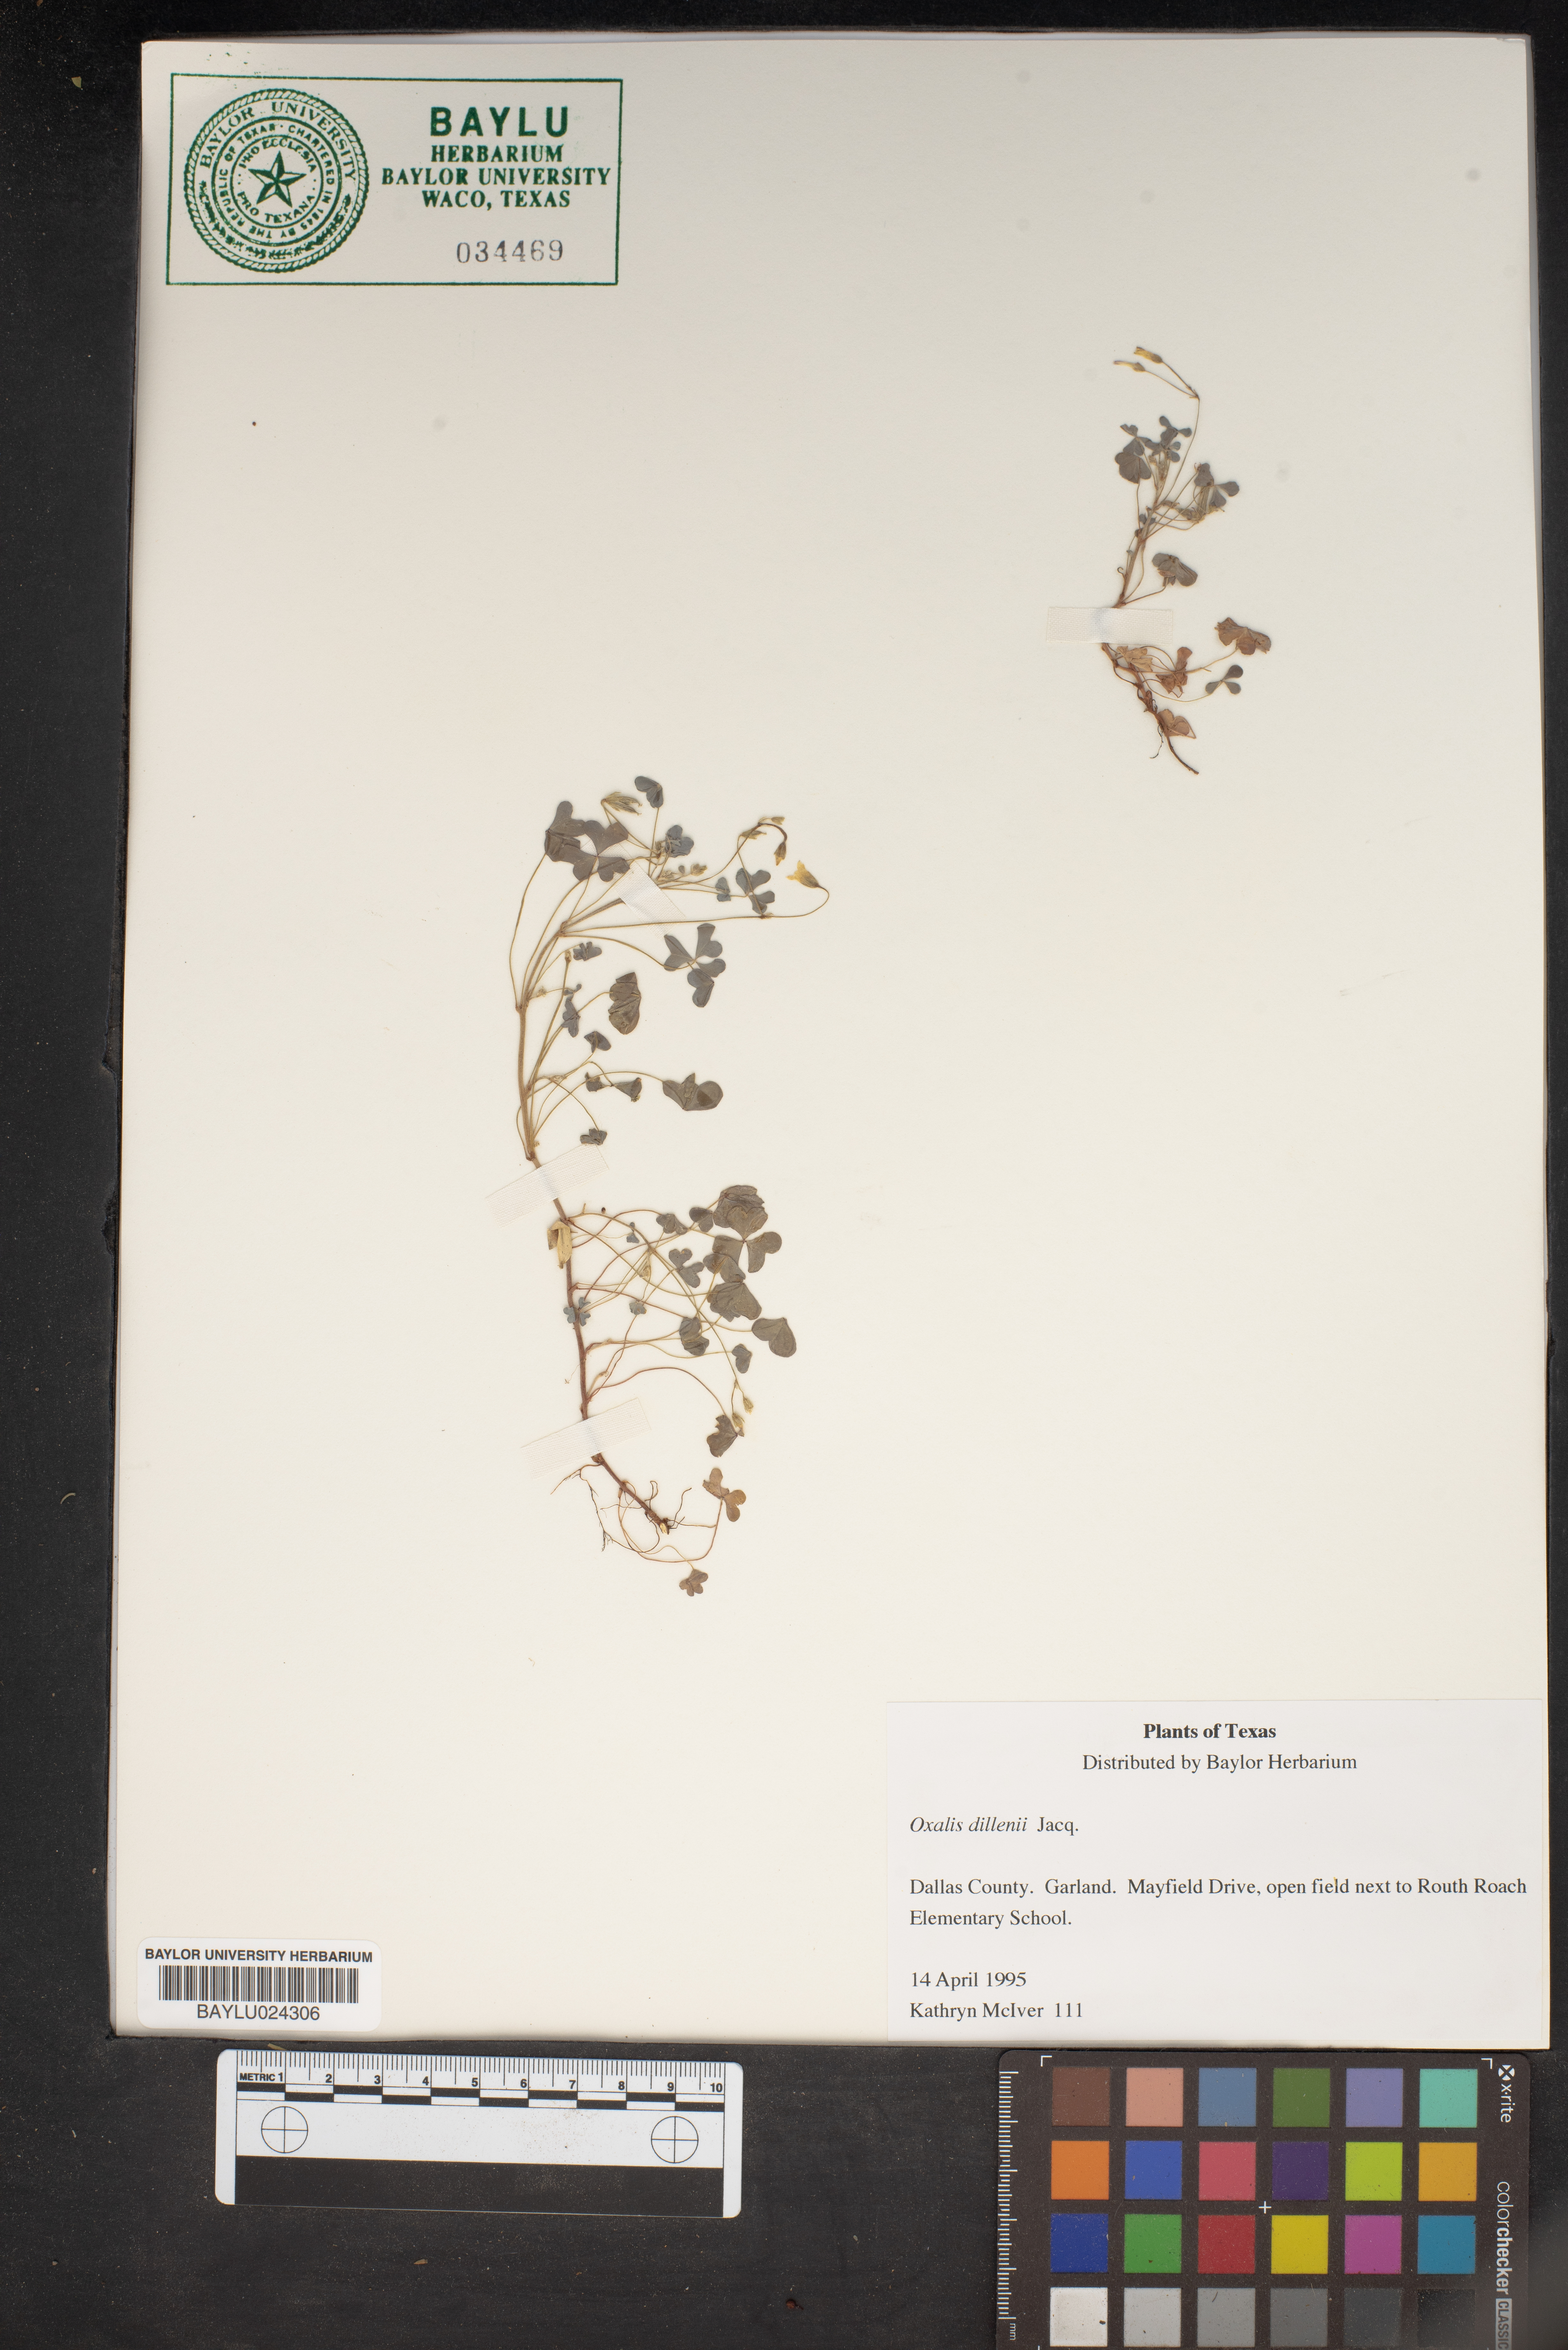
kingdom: Plantae
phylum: Tracheophyta
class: Magnoliopsida
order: Oxalidales
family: Oxalidaceae
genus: Oxalis
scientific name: Oxalis dillenii
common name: Sussex yellow-sorrel
